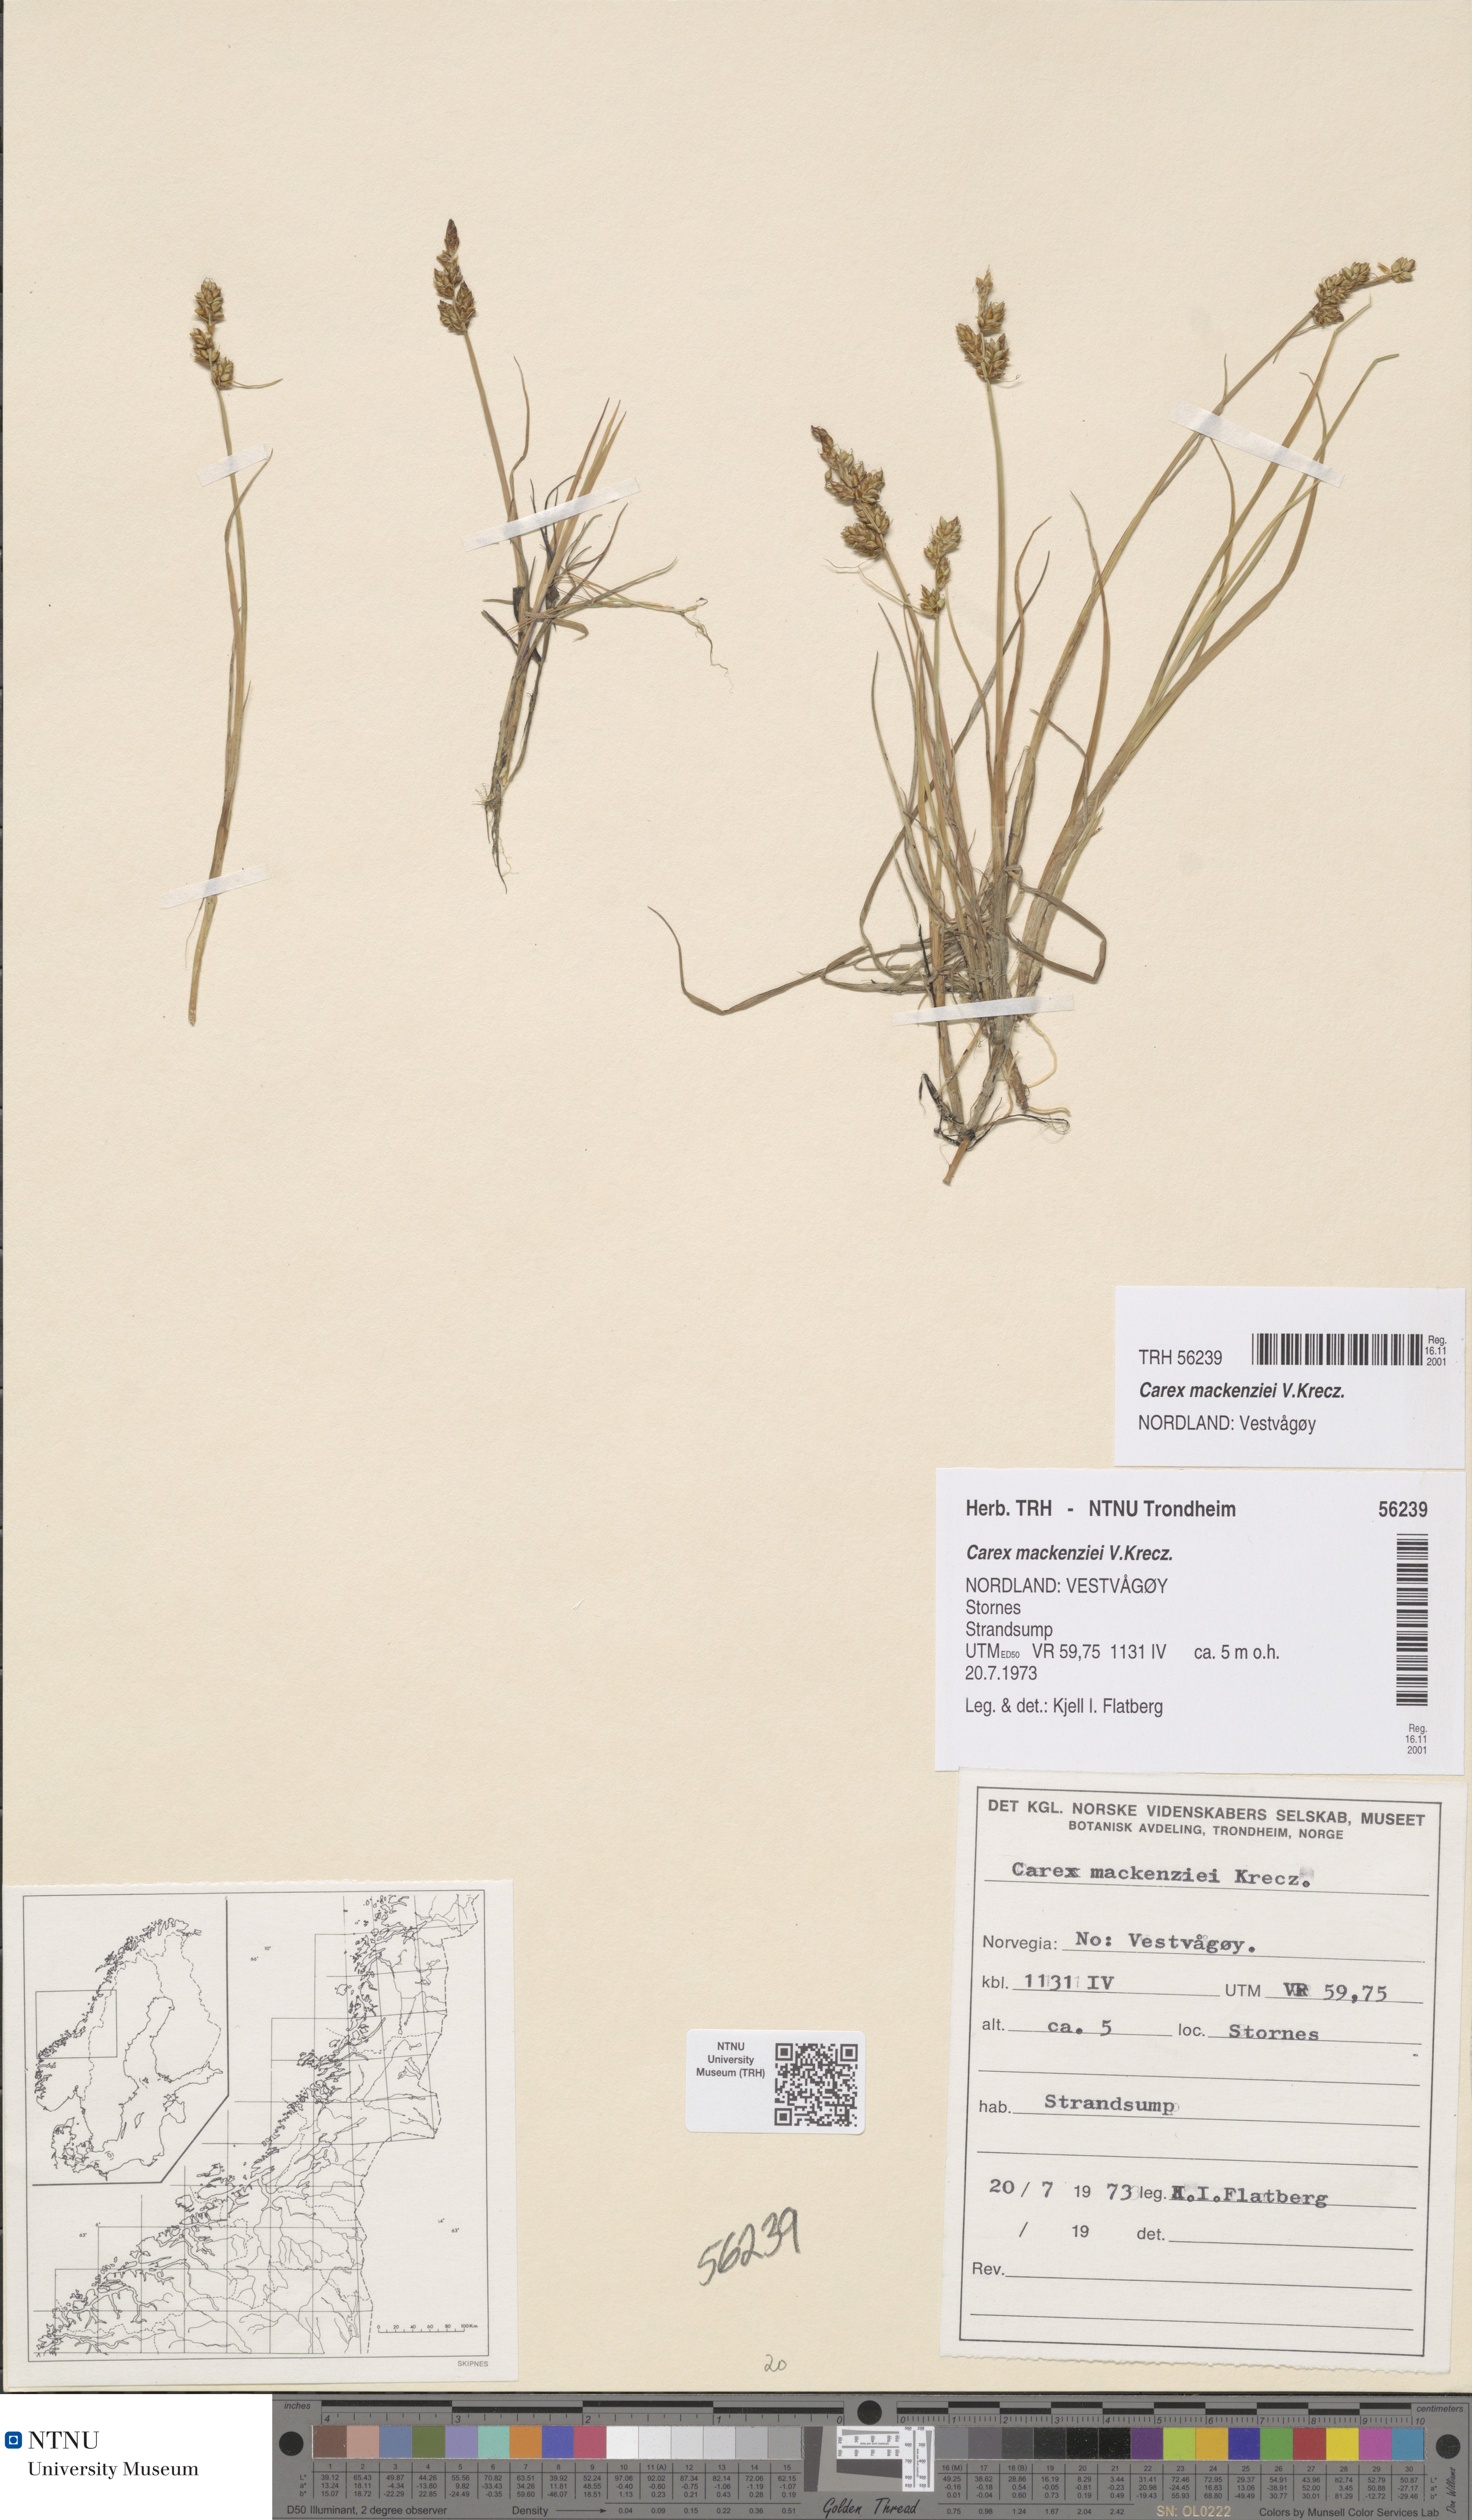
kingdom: Plantae
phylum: Tracheophyta
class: Liliopsida
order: Poales
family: Cyperaceae
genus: Carex
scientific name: Carex mackenziei
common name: Mackenzie's sedge
